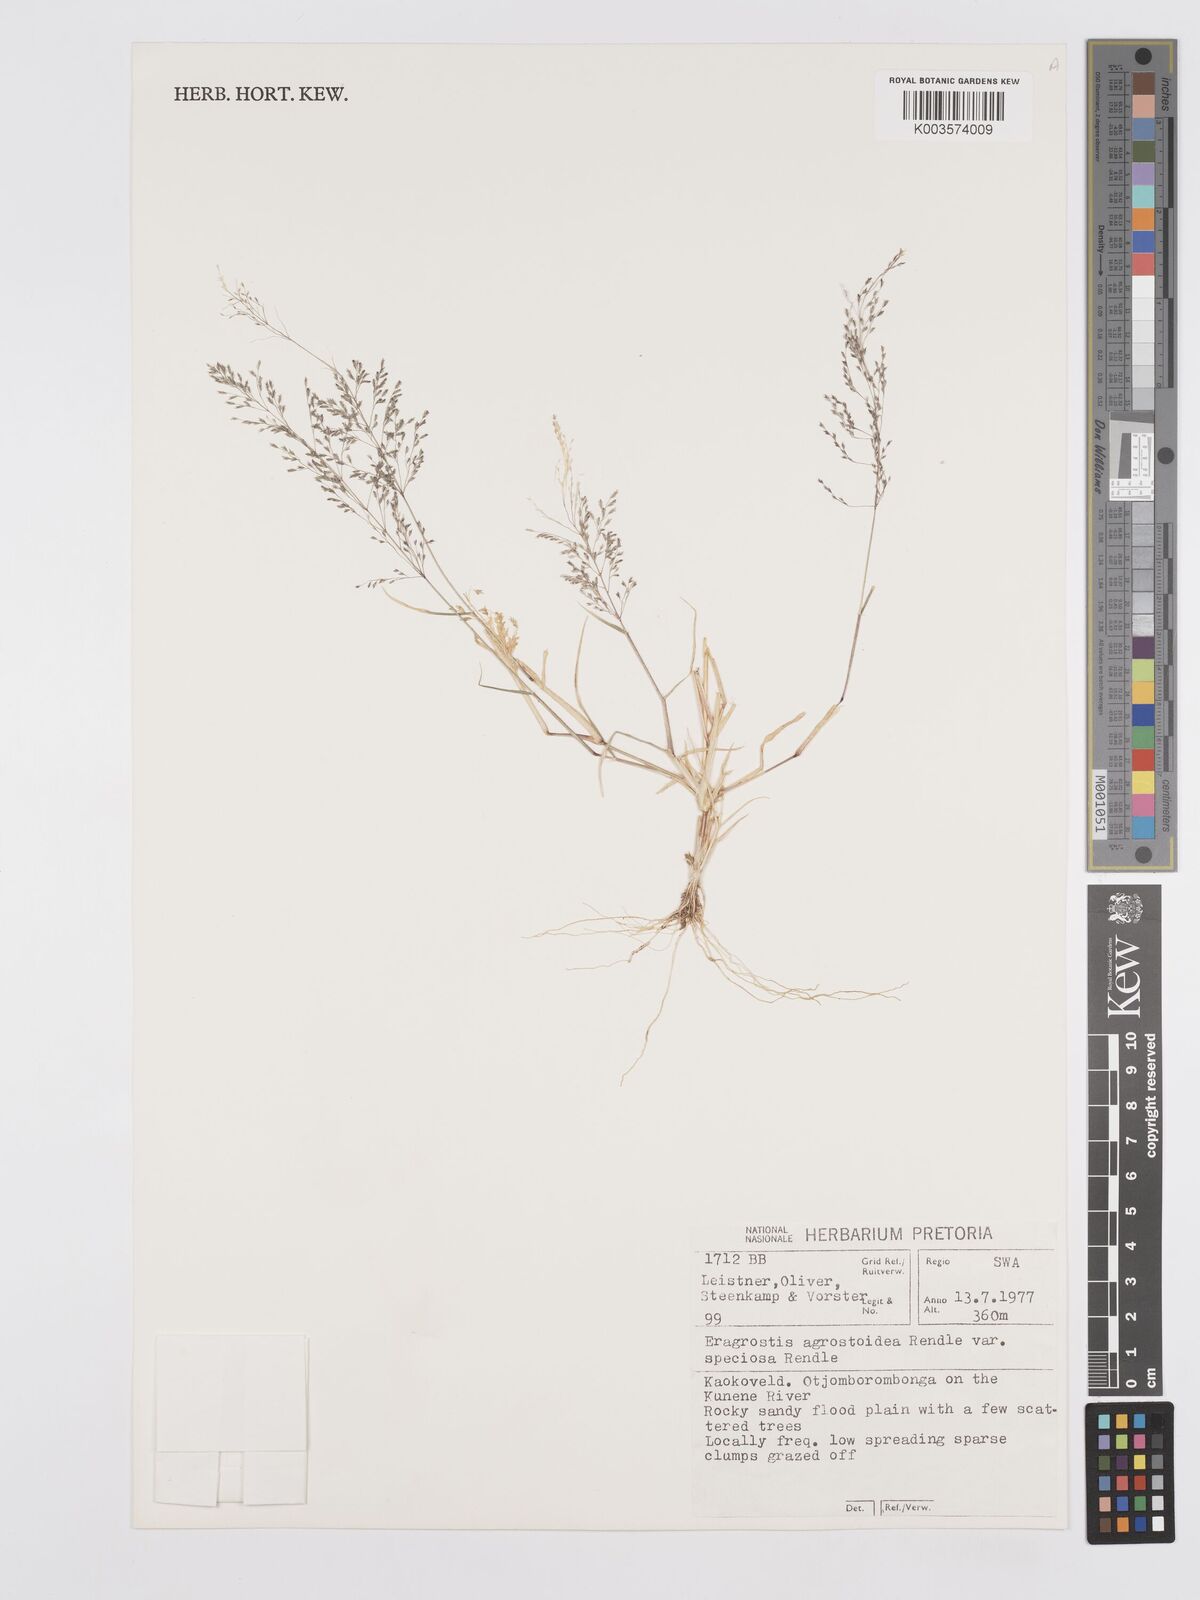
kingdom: Plantae
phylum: Tracheophyta
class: Liliopsida
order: Poales
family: Poaceae
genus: Eragrostis
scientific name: Eragrostis cylindriflora
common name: Cylinderflower lovegrass
